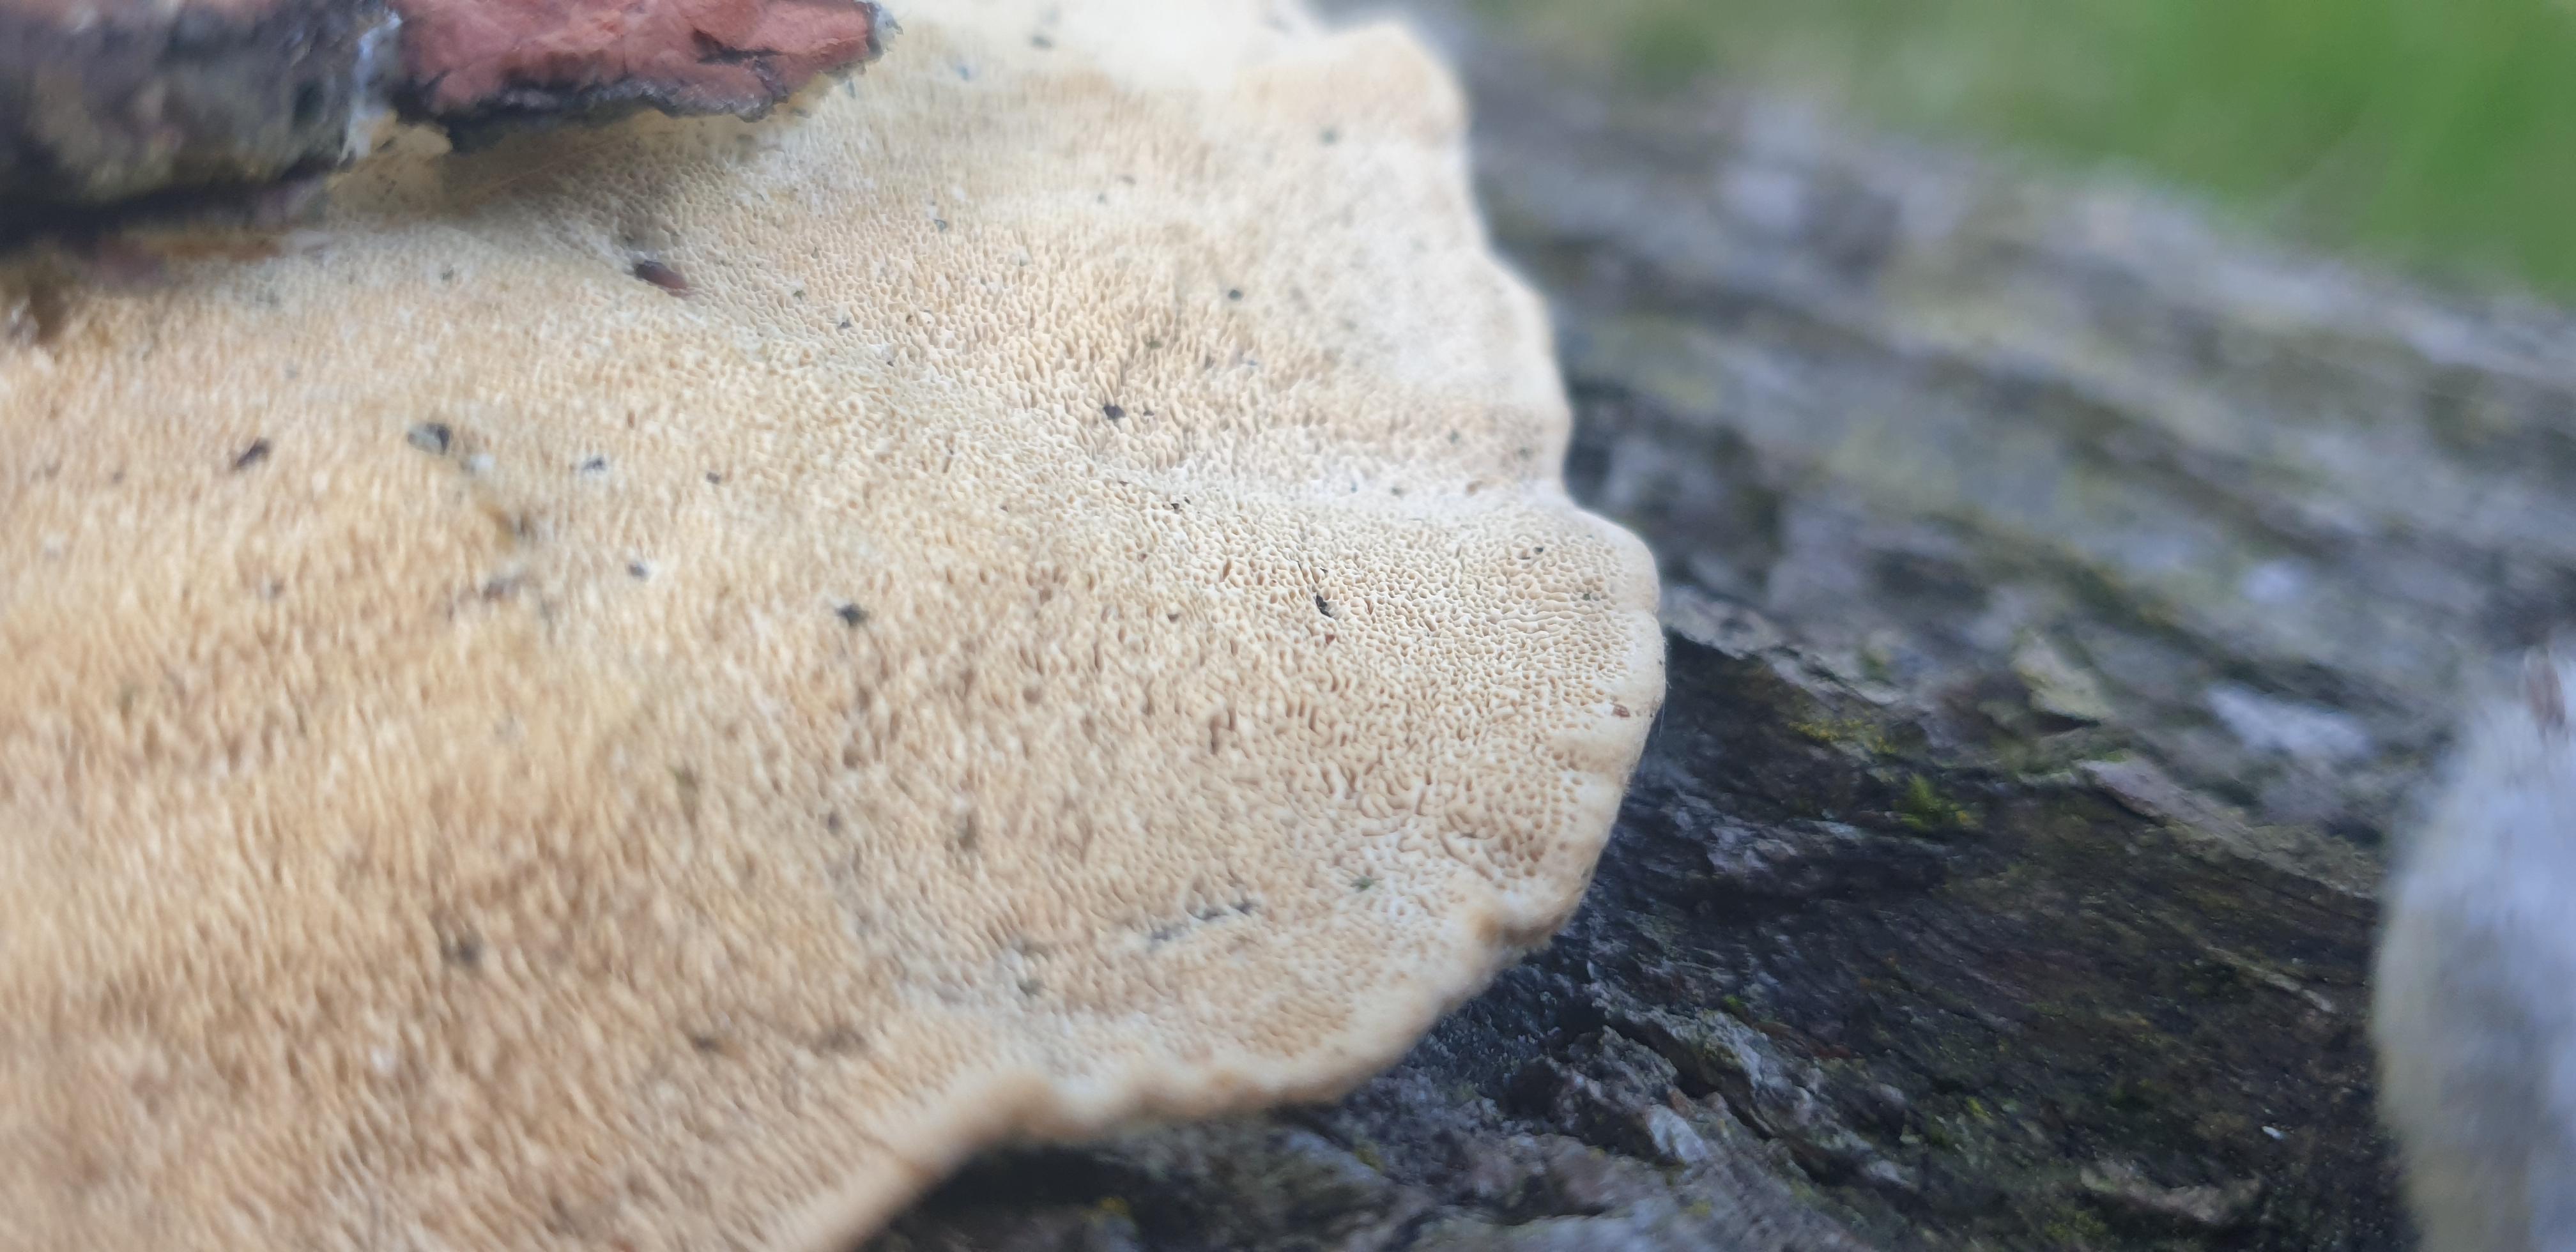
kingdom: Fungi
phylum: Basidiomycota
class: Agaricomycetes
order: Polyporales
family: Polyporaceae
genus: Trametes
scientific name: Trametes hirsuta
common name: håret læderporesvamp
